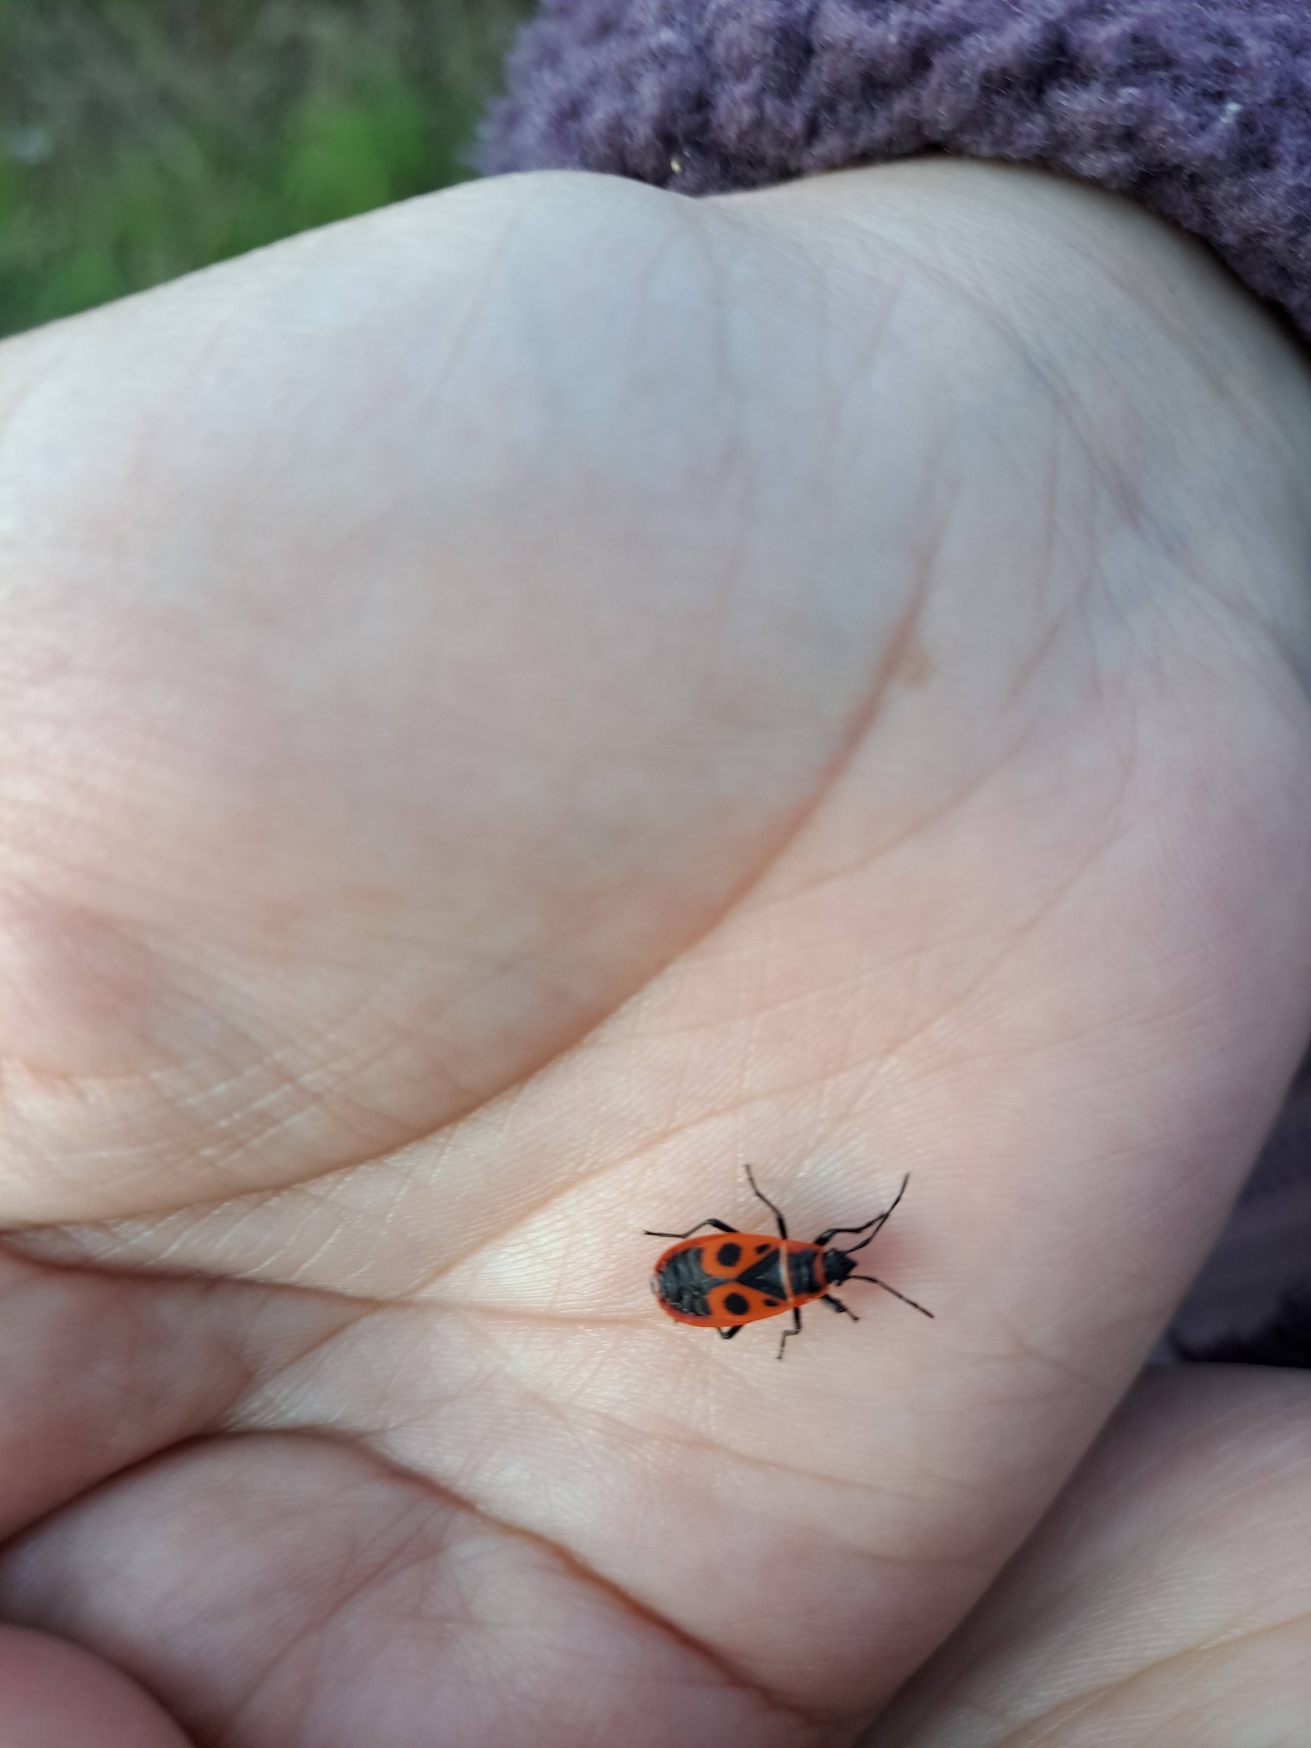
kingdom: Animalia
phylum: Arthropoda
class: Insecta
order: Hemiptera
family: Pyrrhocoridae
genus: Pyrrhocoris
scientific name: Pyrrhocoris apterus
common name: Ildtæge
